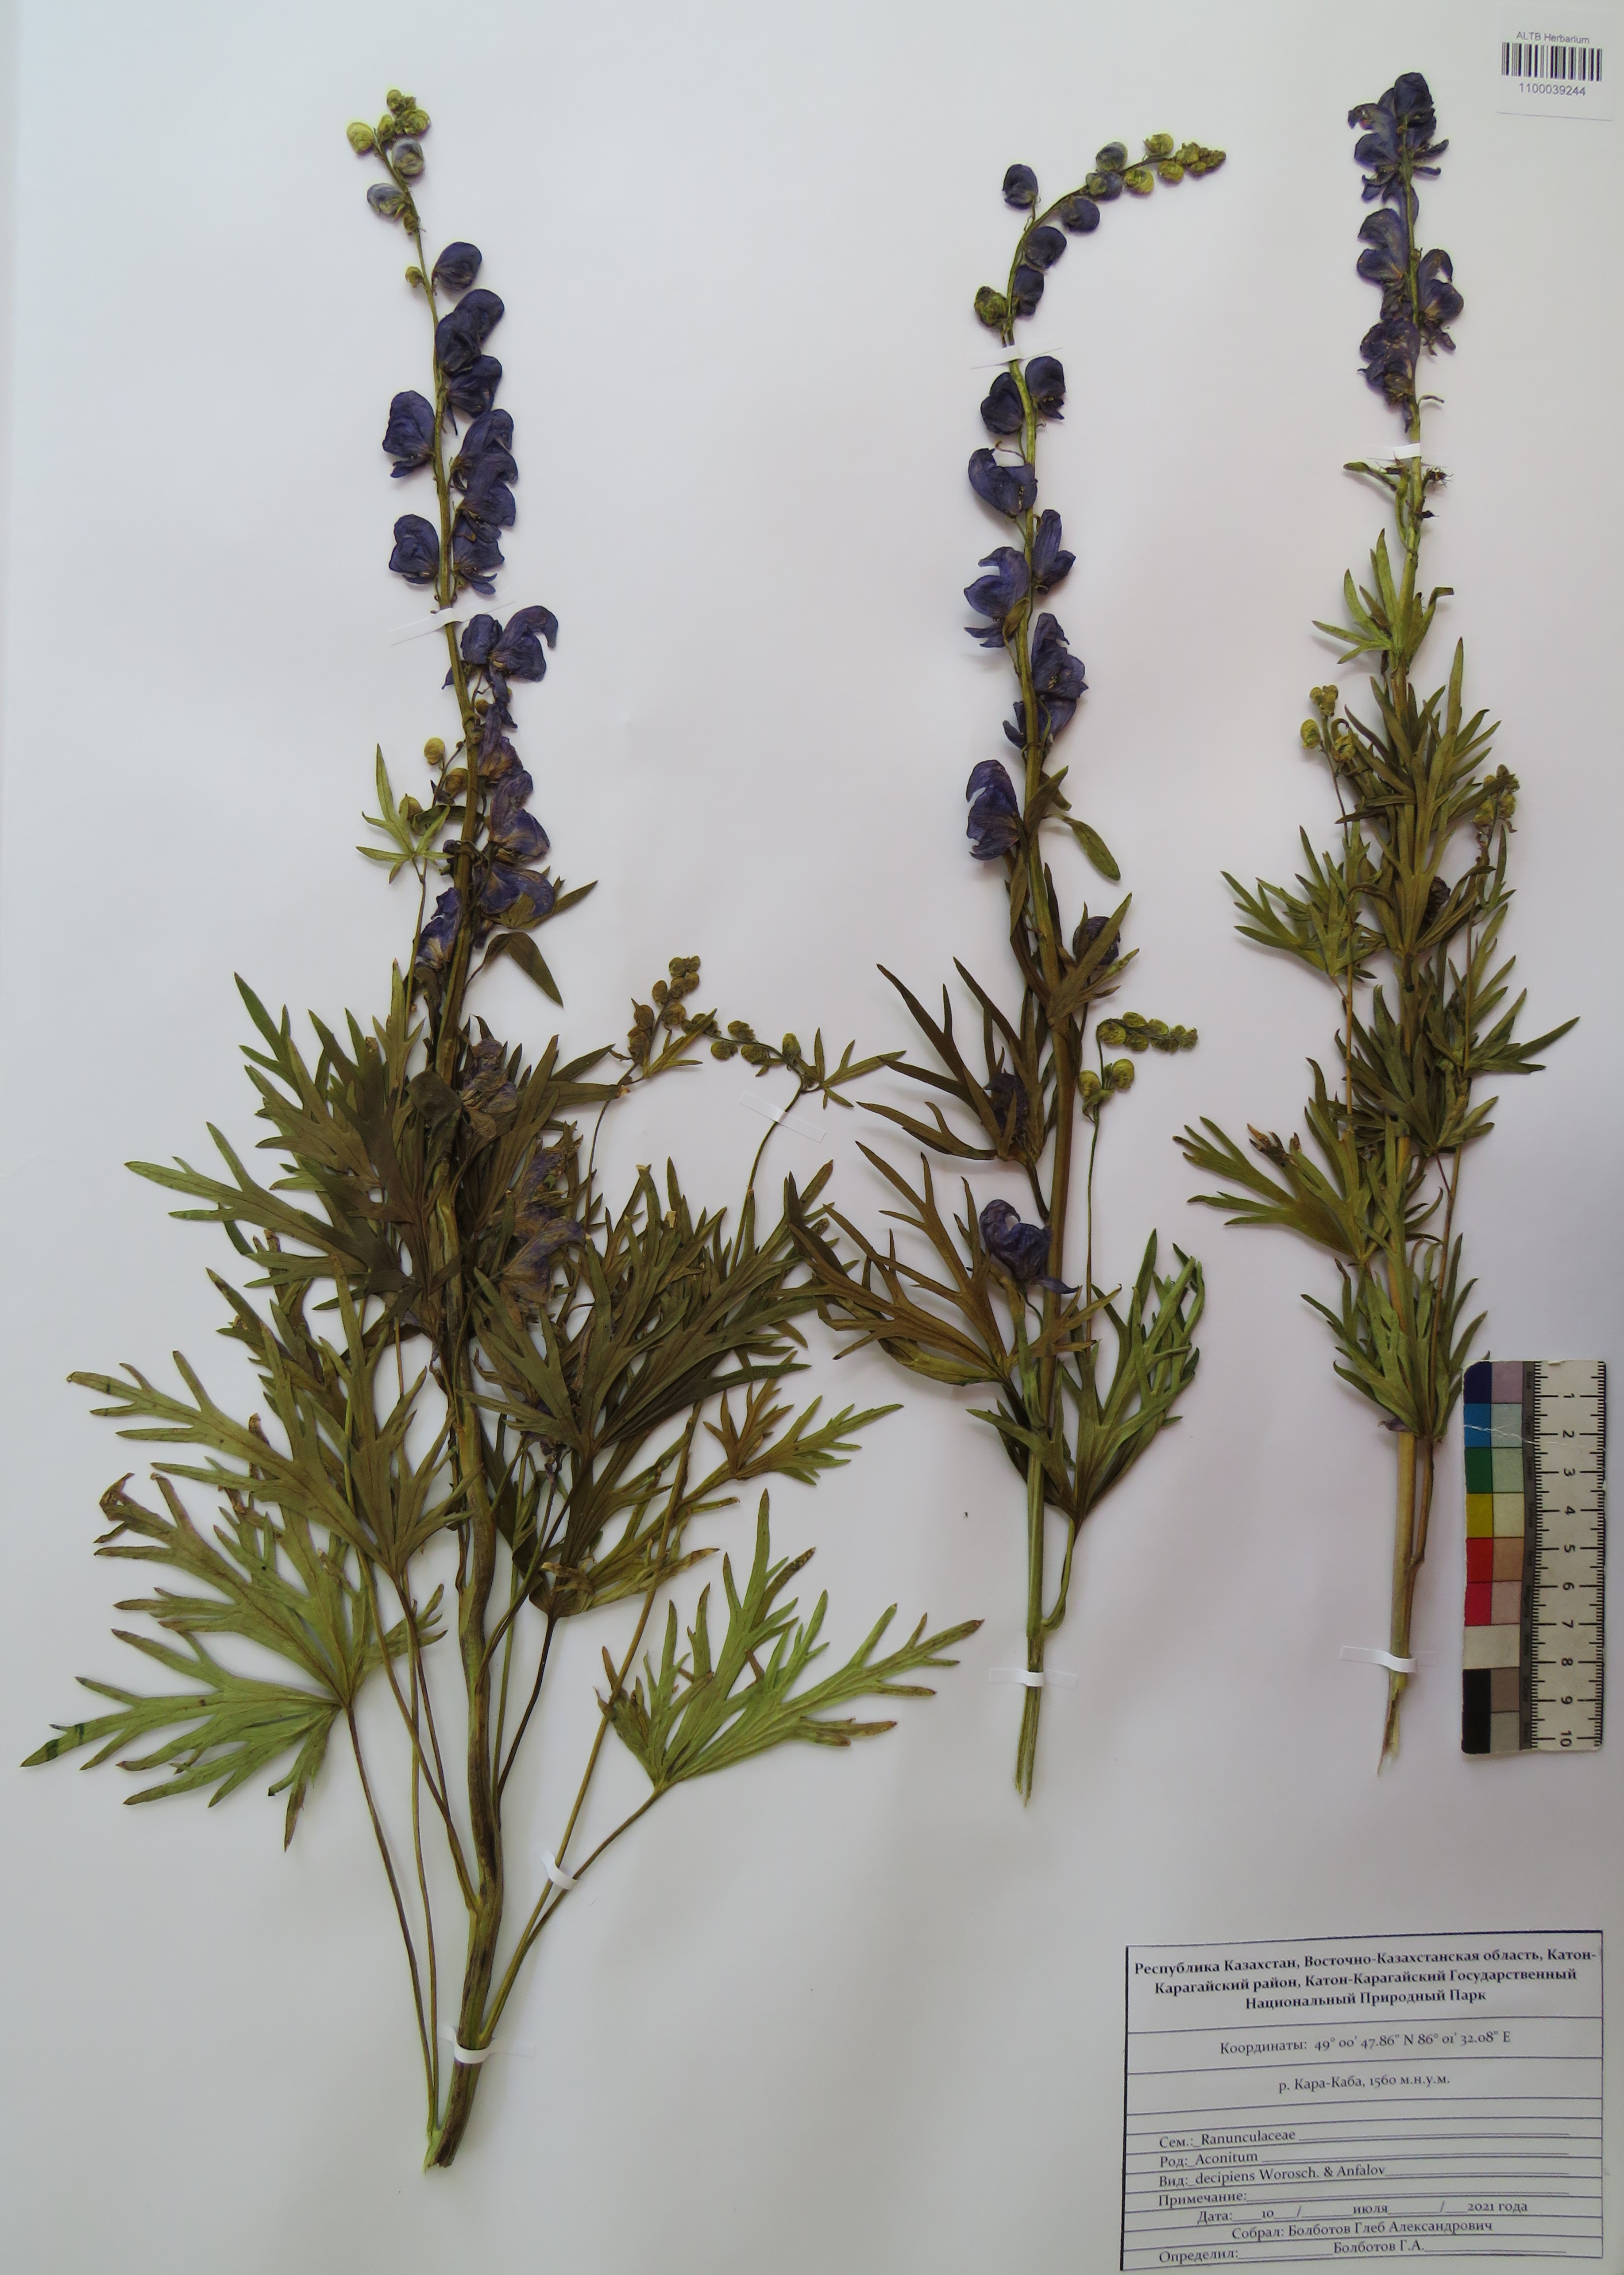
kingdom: Plantae
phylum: Tracheophyta
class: Magnoliopsida
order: Ranunculales
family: Ranunculaceae
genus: Aconitum
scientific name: Aconitum glandulosum
